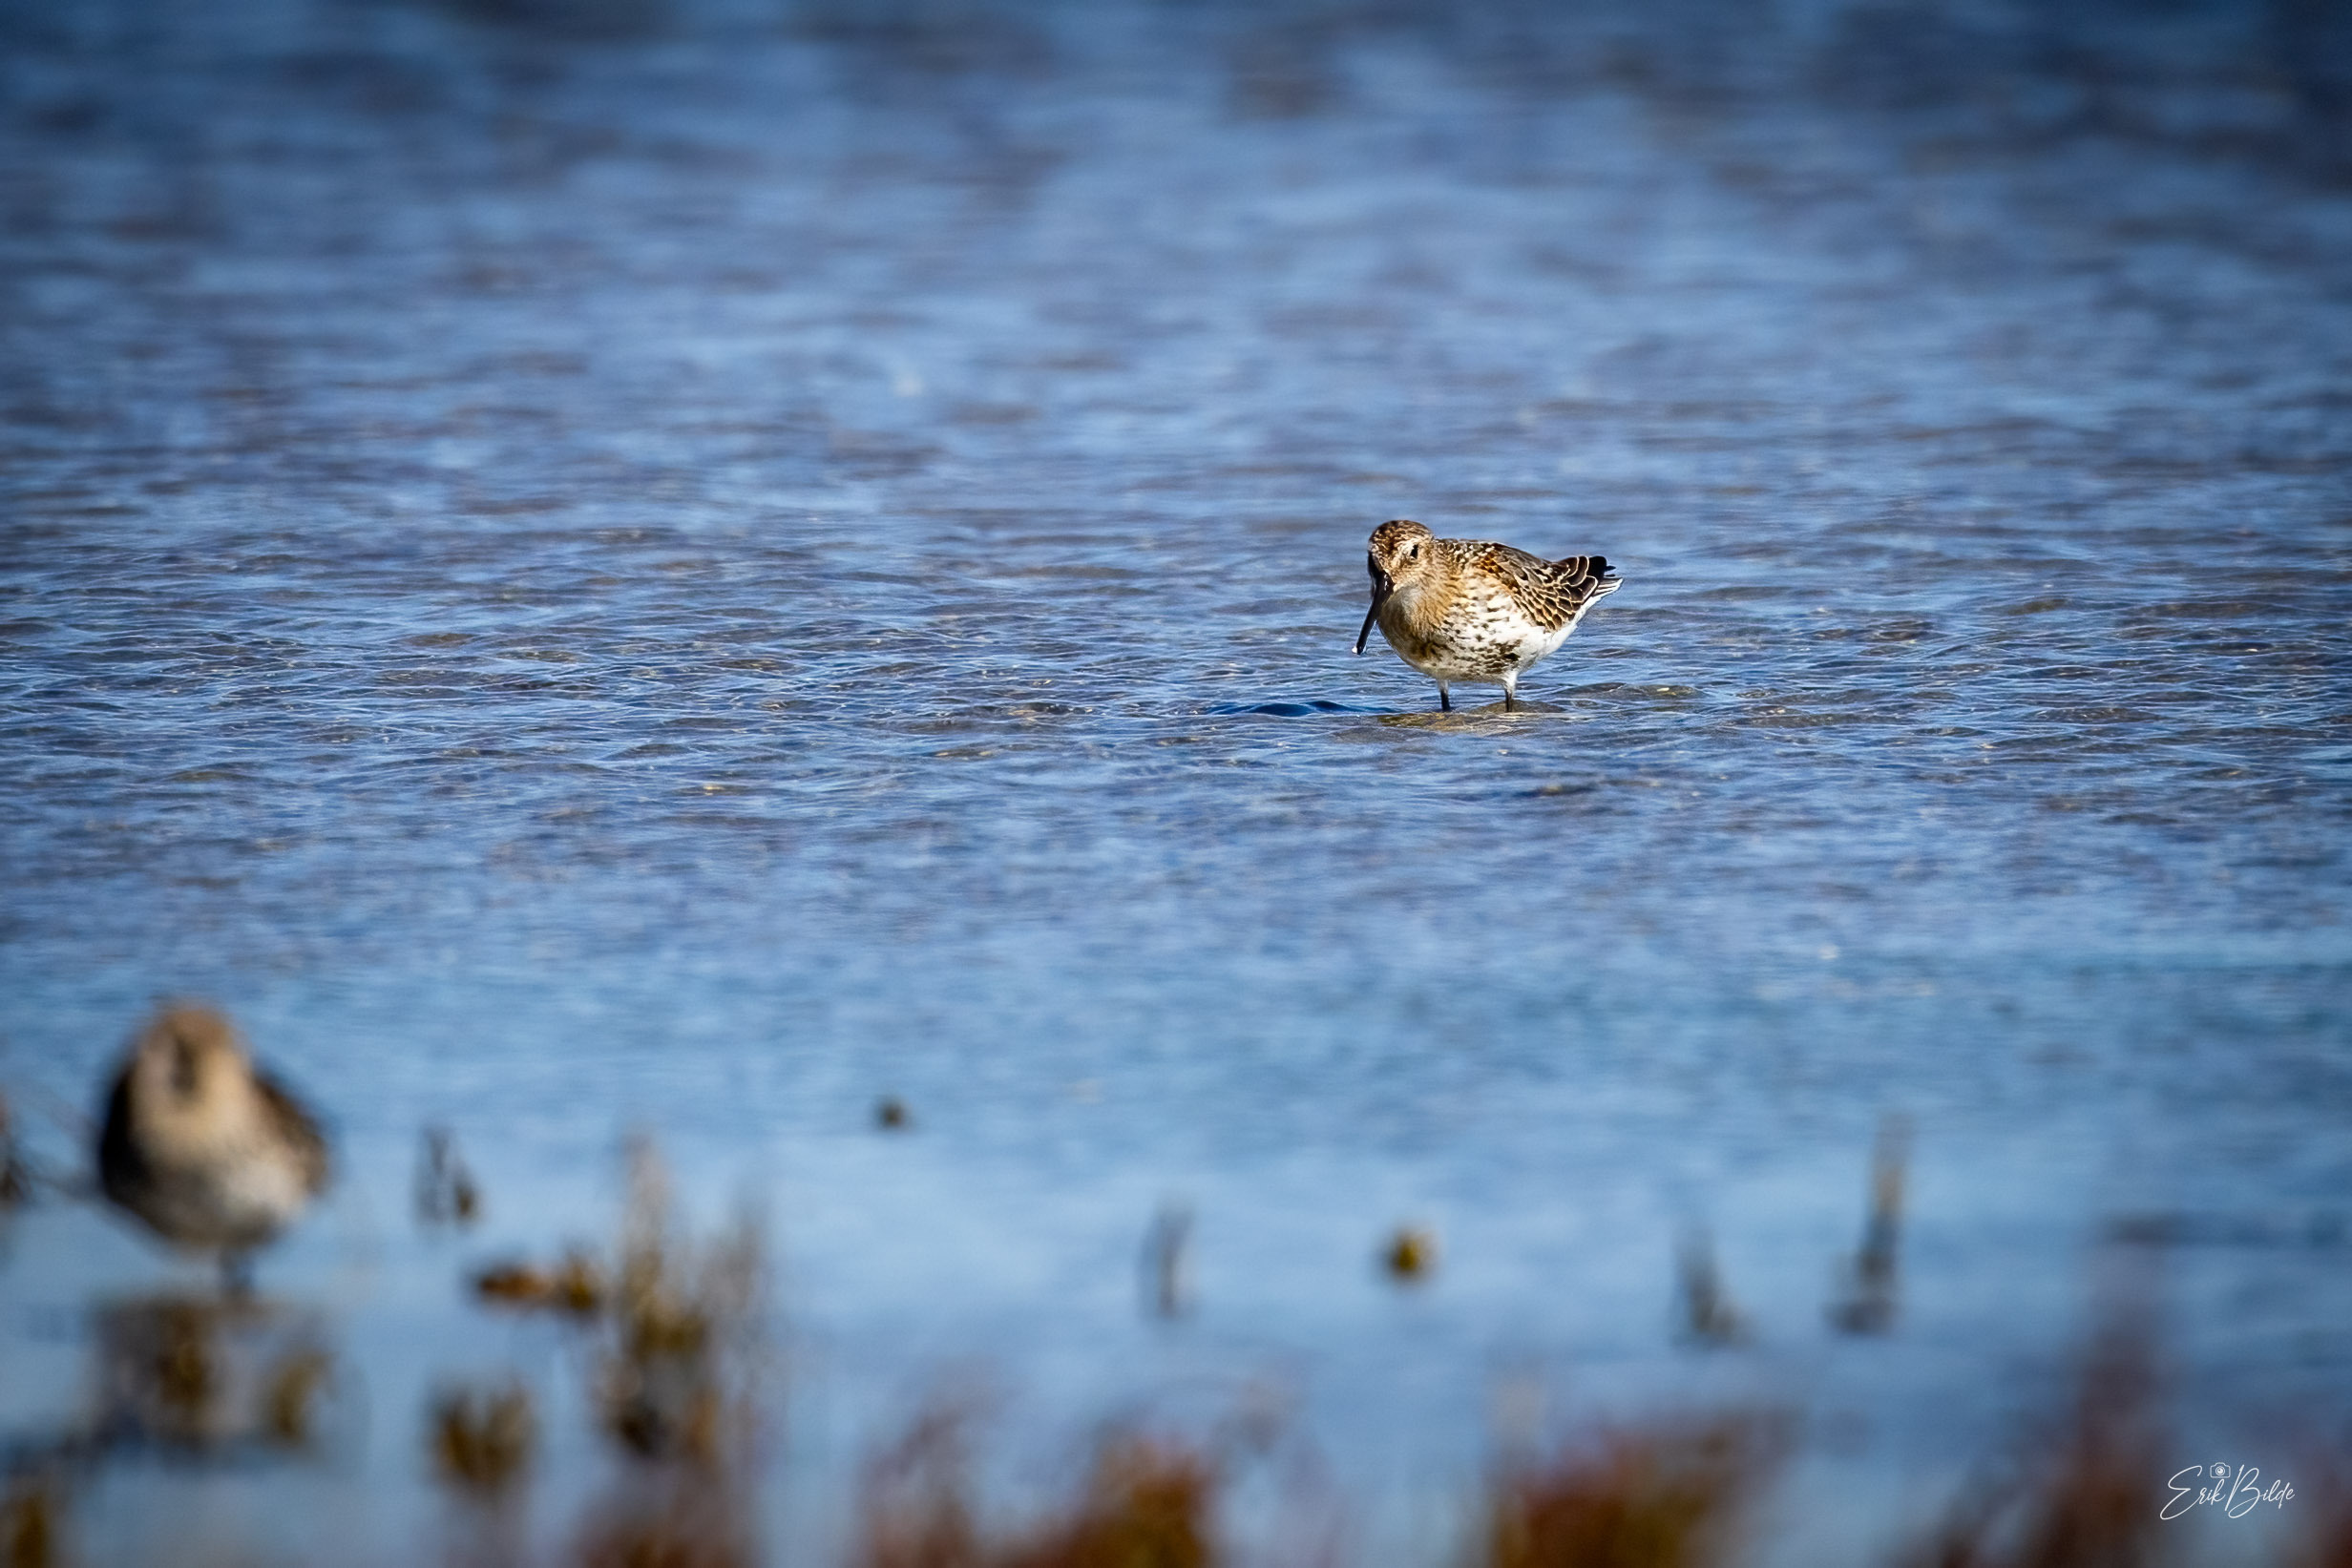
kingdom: Animalia
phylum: Chordata
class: Aves
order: Charadriiformes
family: Scolopacidae
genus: Calidris
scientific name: Calidris alpina
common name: Almindelig ryle
